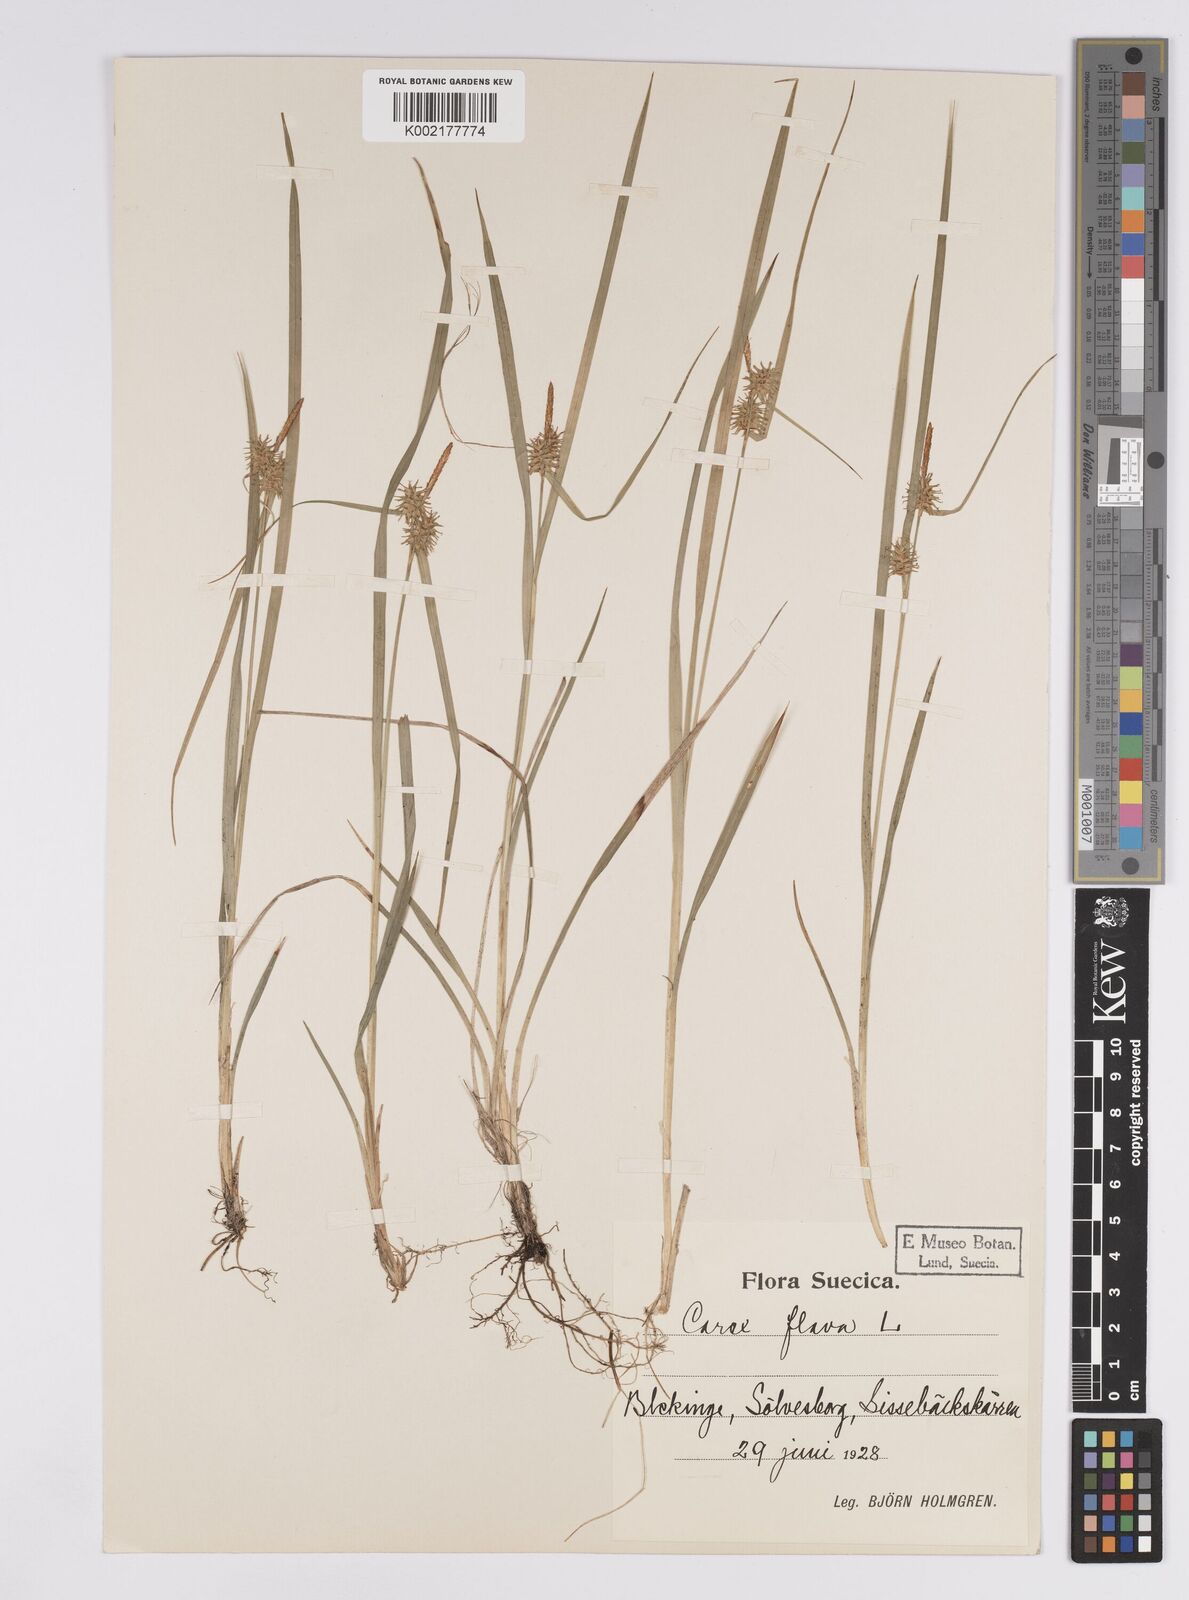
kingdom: Plantae
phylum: Tracheophyta
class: Liliopsida
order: Poales
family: Cyperaceae
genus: Carex
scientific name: Carex flava
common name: Large yellow-sedge
